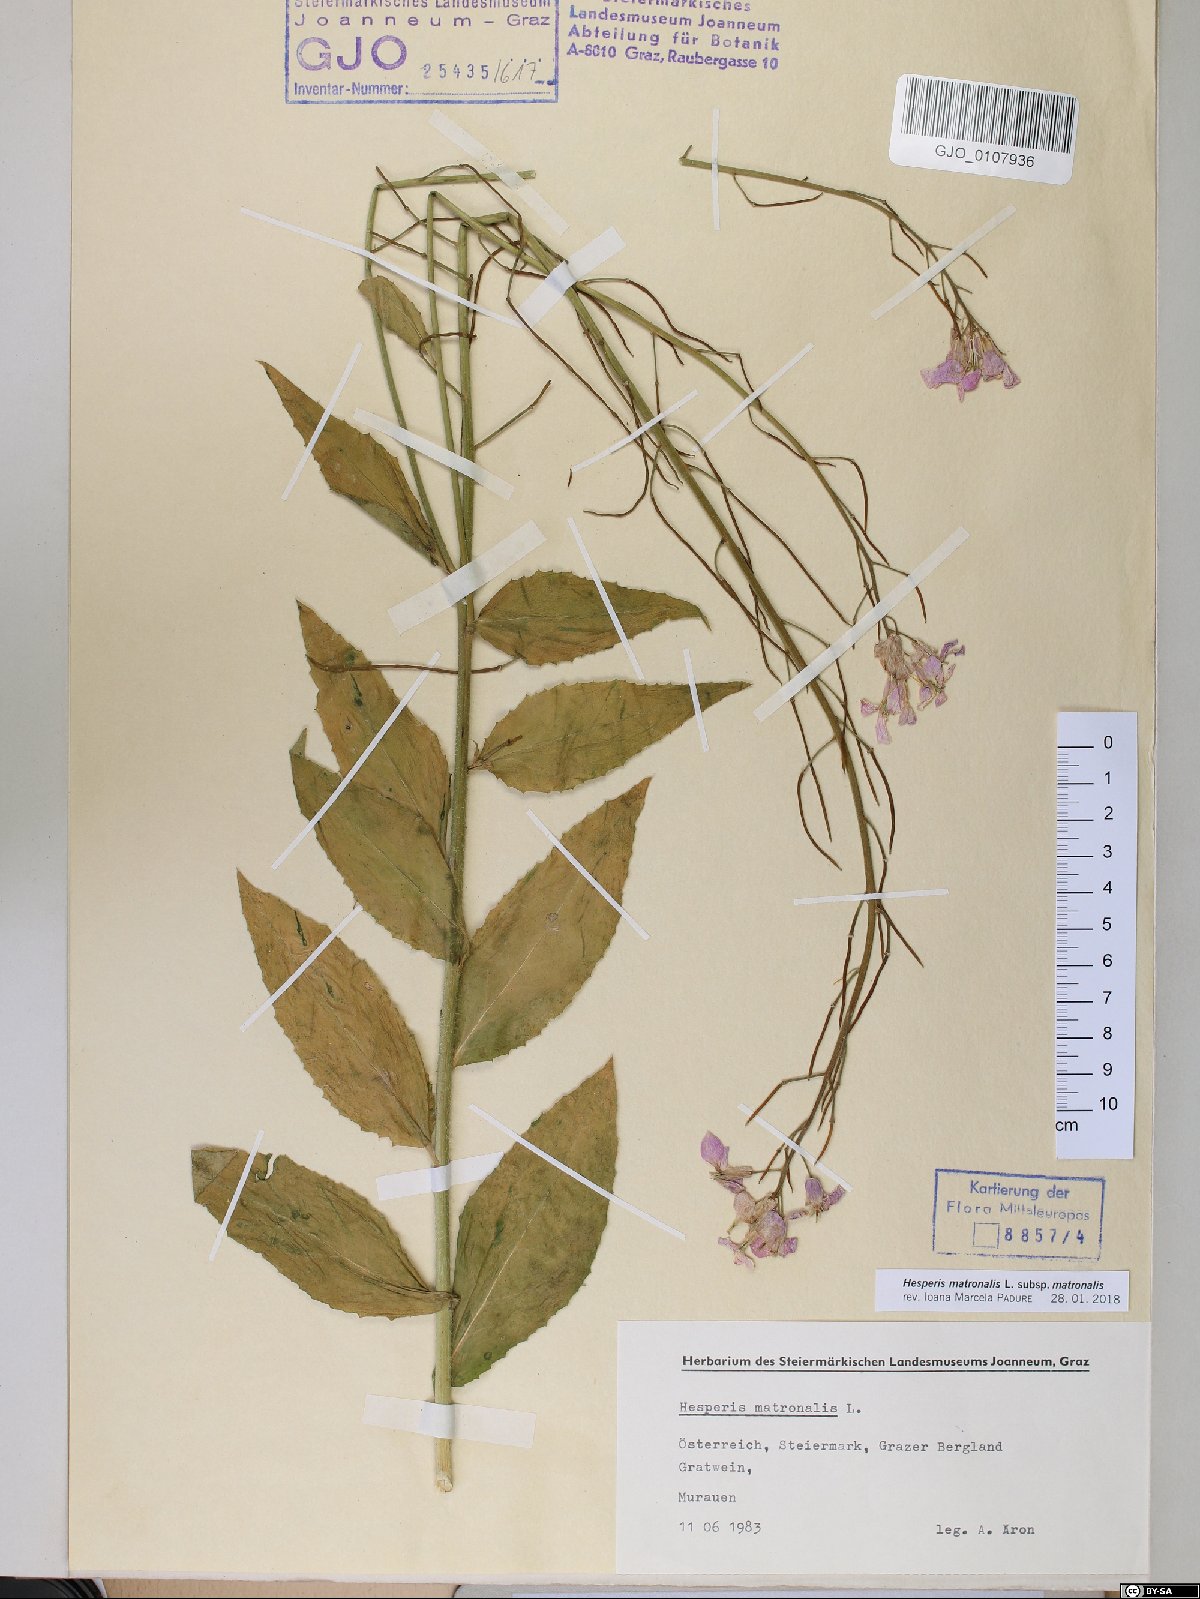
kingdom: Plantae
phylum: Tracheophyta
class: Magnoliopsida
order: Brassicales
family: Brassicaceae
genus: Hesperis
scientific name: Hesperis matronalis
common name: Dame's-violet
